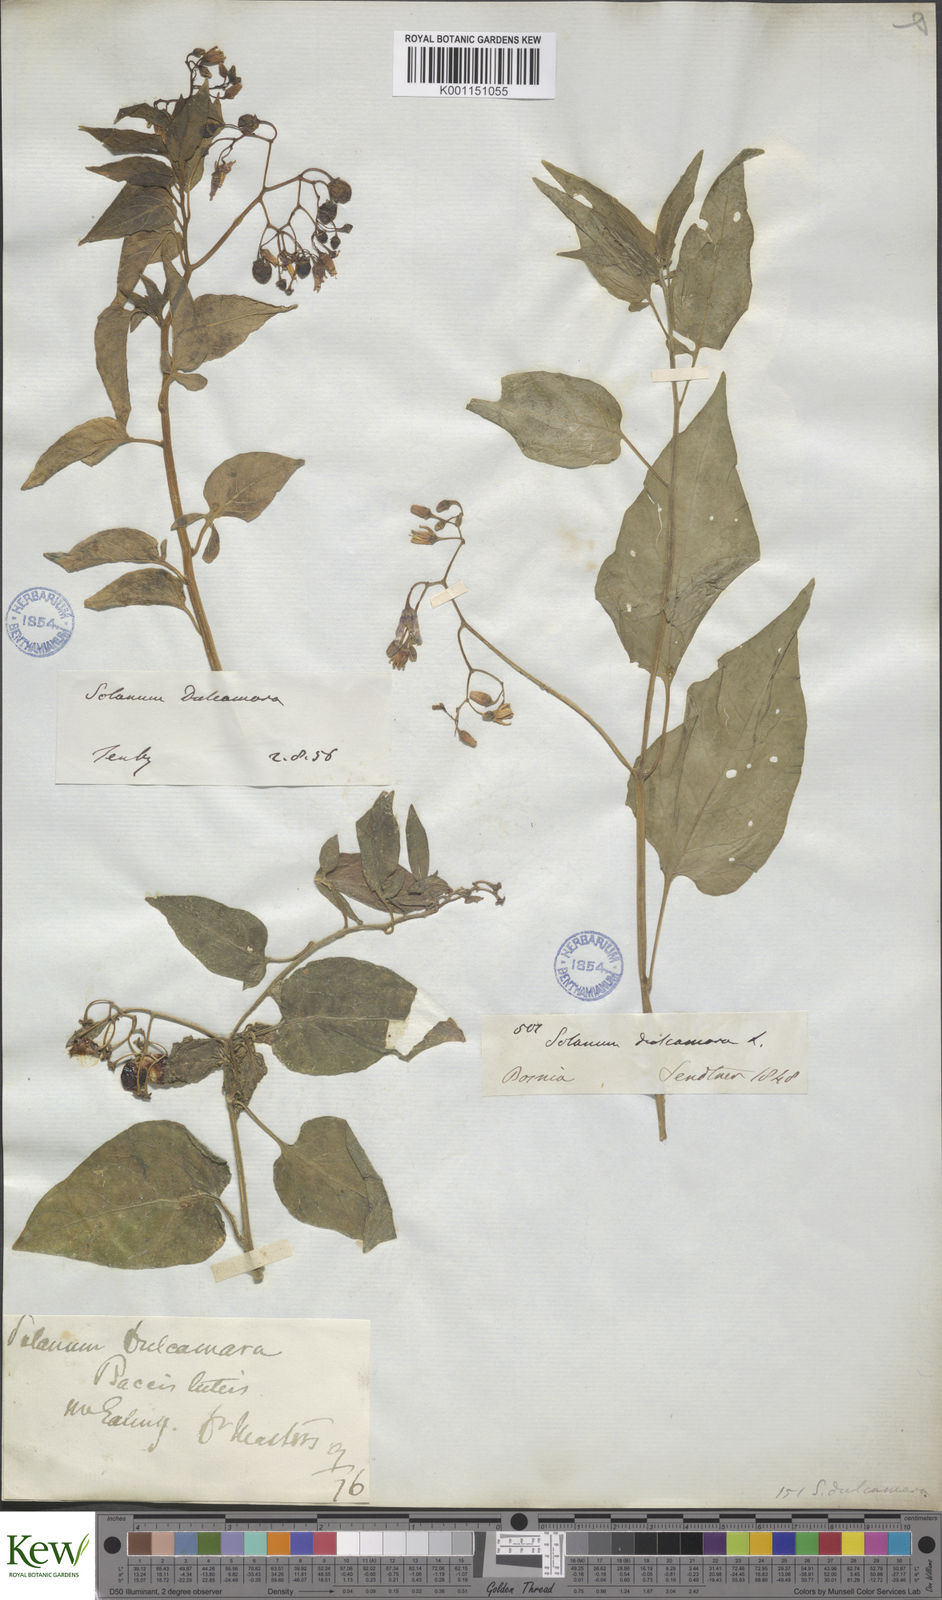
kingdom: Plantae
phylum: Tracheophyta
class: Magnoliopsida
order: Solanales
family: Solanaceae
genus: Solanum
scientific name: Solanum dulcamara
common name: Climbing nightshade
